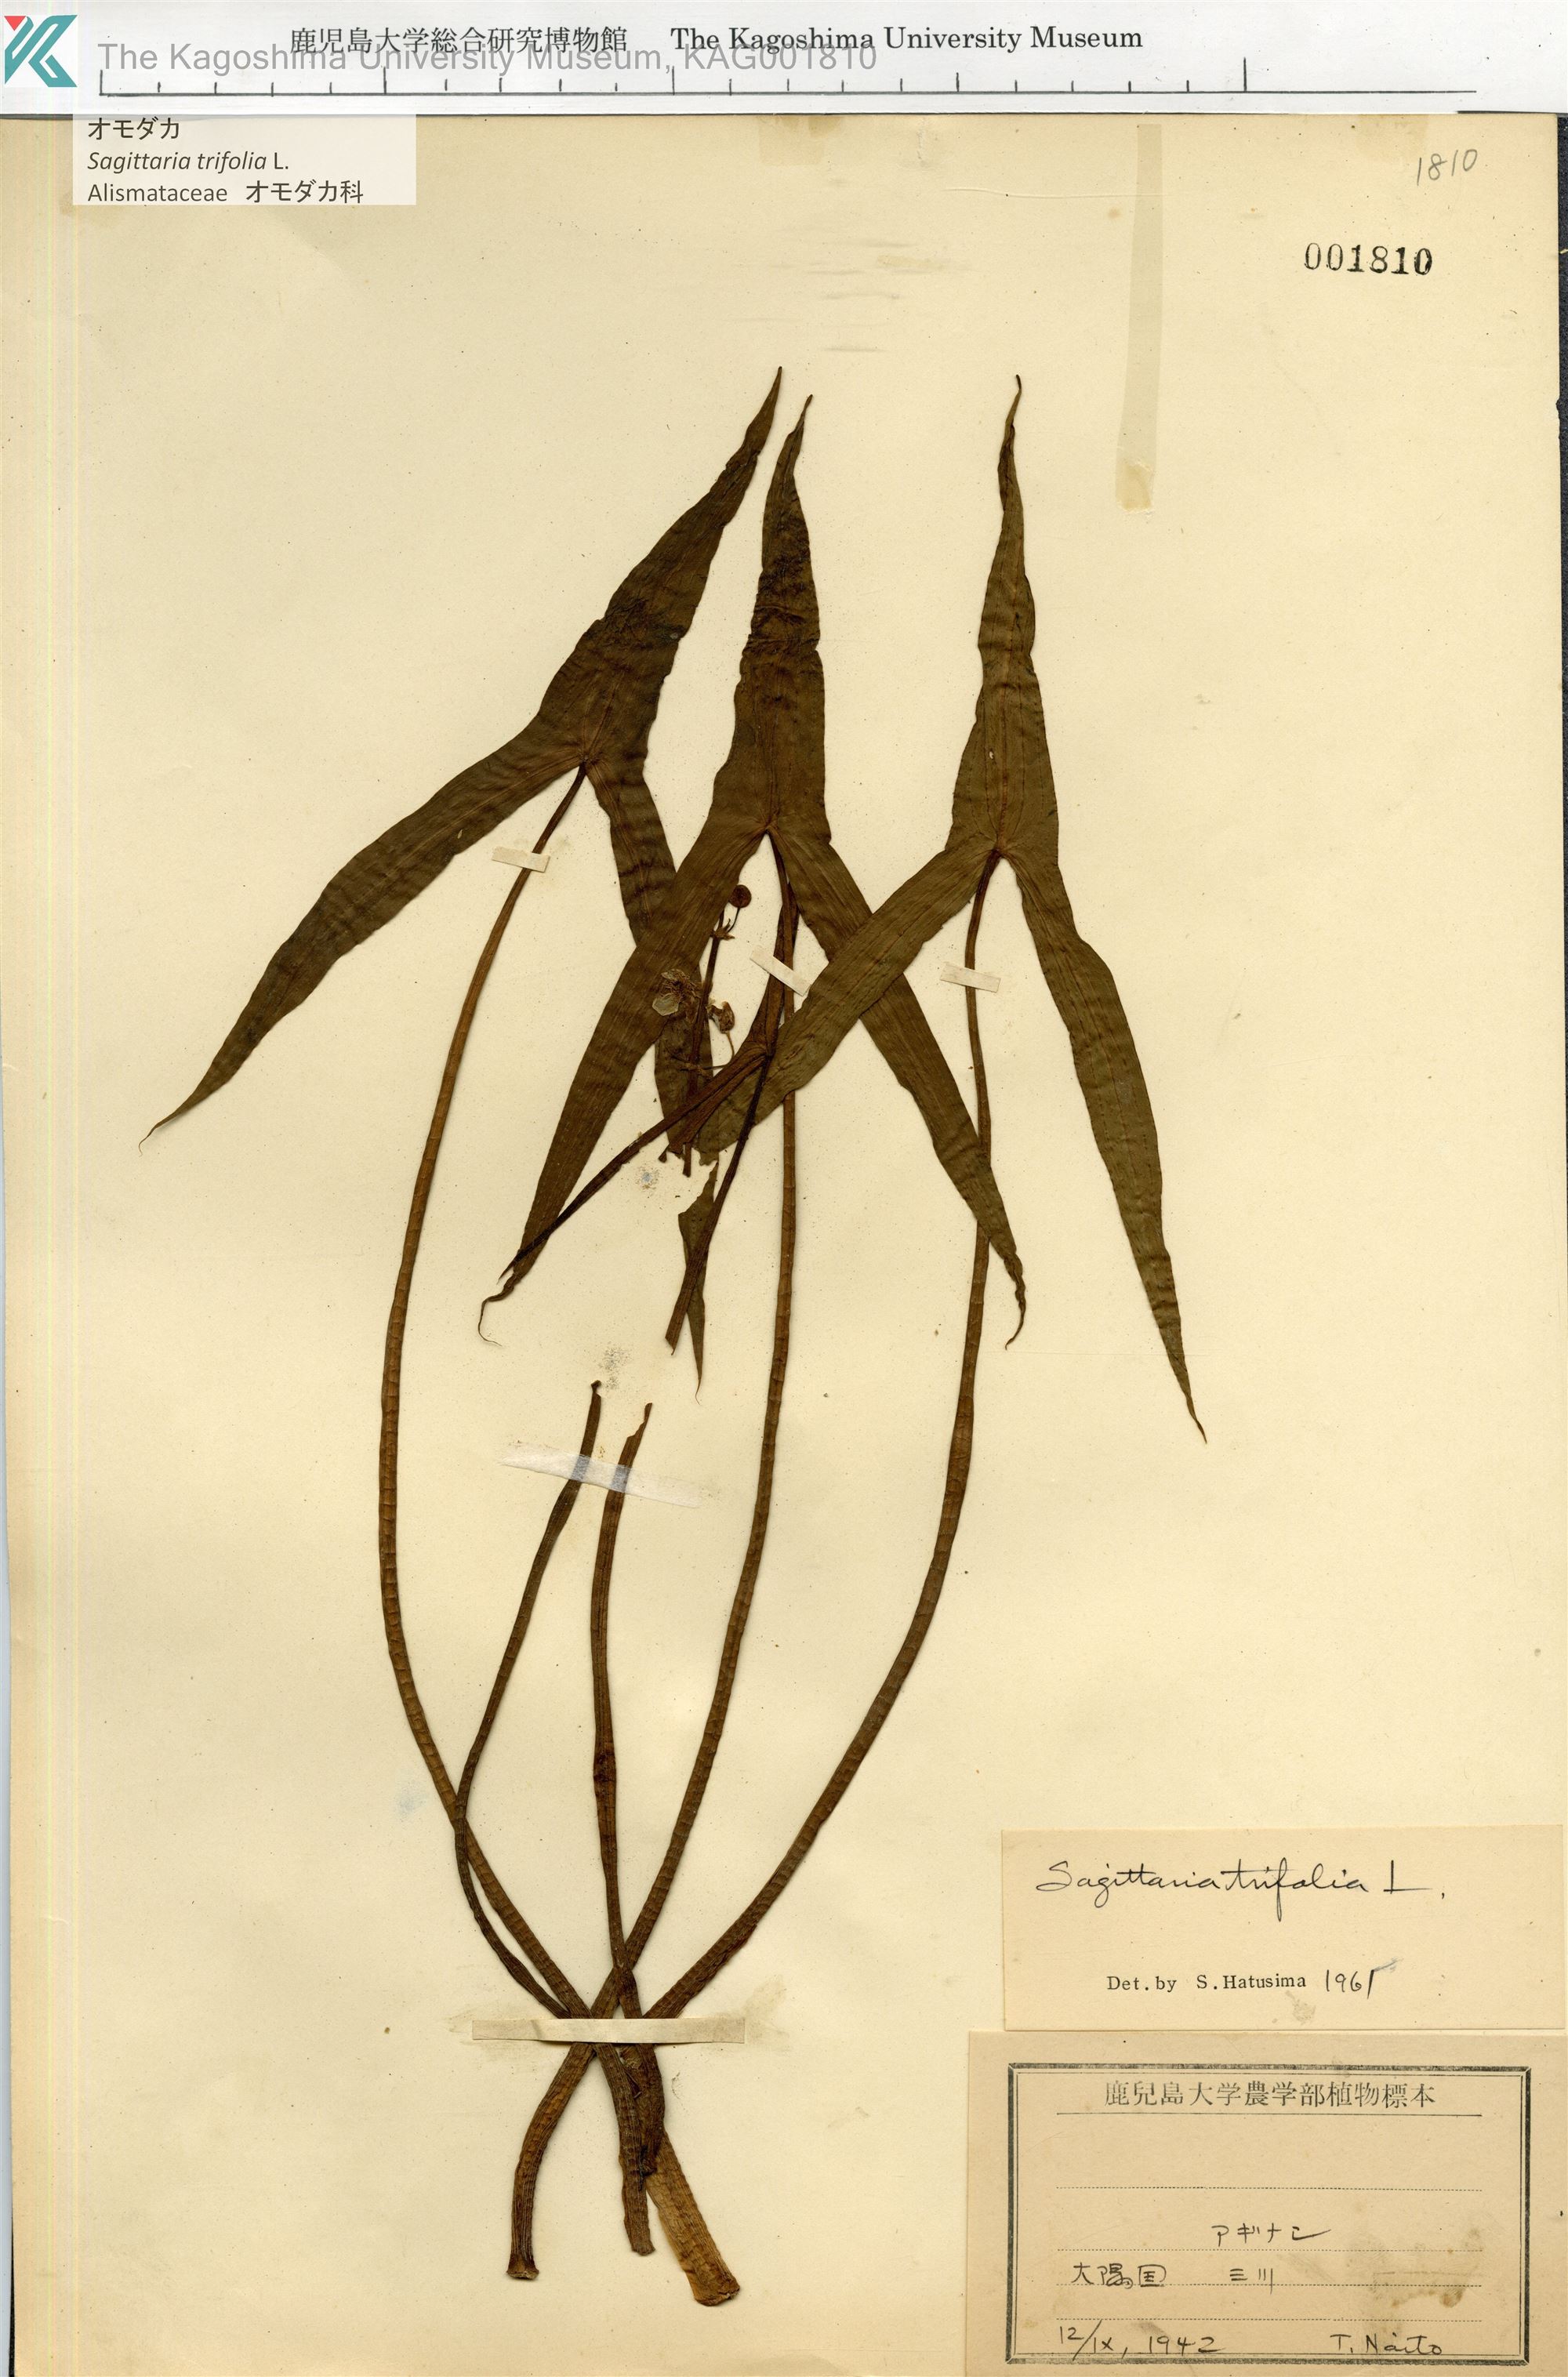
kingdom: Plantae
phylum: Tracheophyta
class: Liliopsida
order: Alismatales
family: Alismataceae
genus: Sagittaria
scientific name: Sagittaria trifolia
